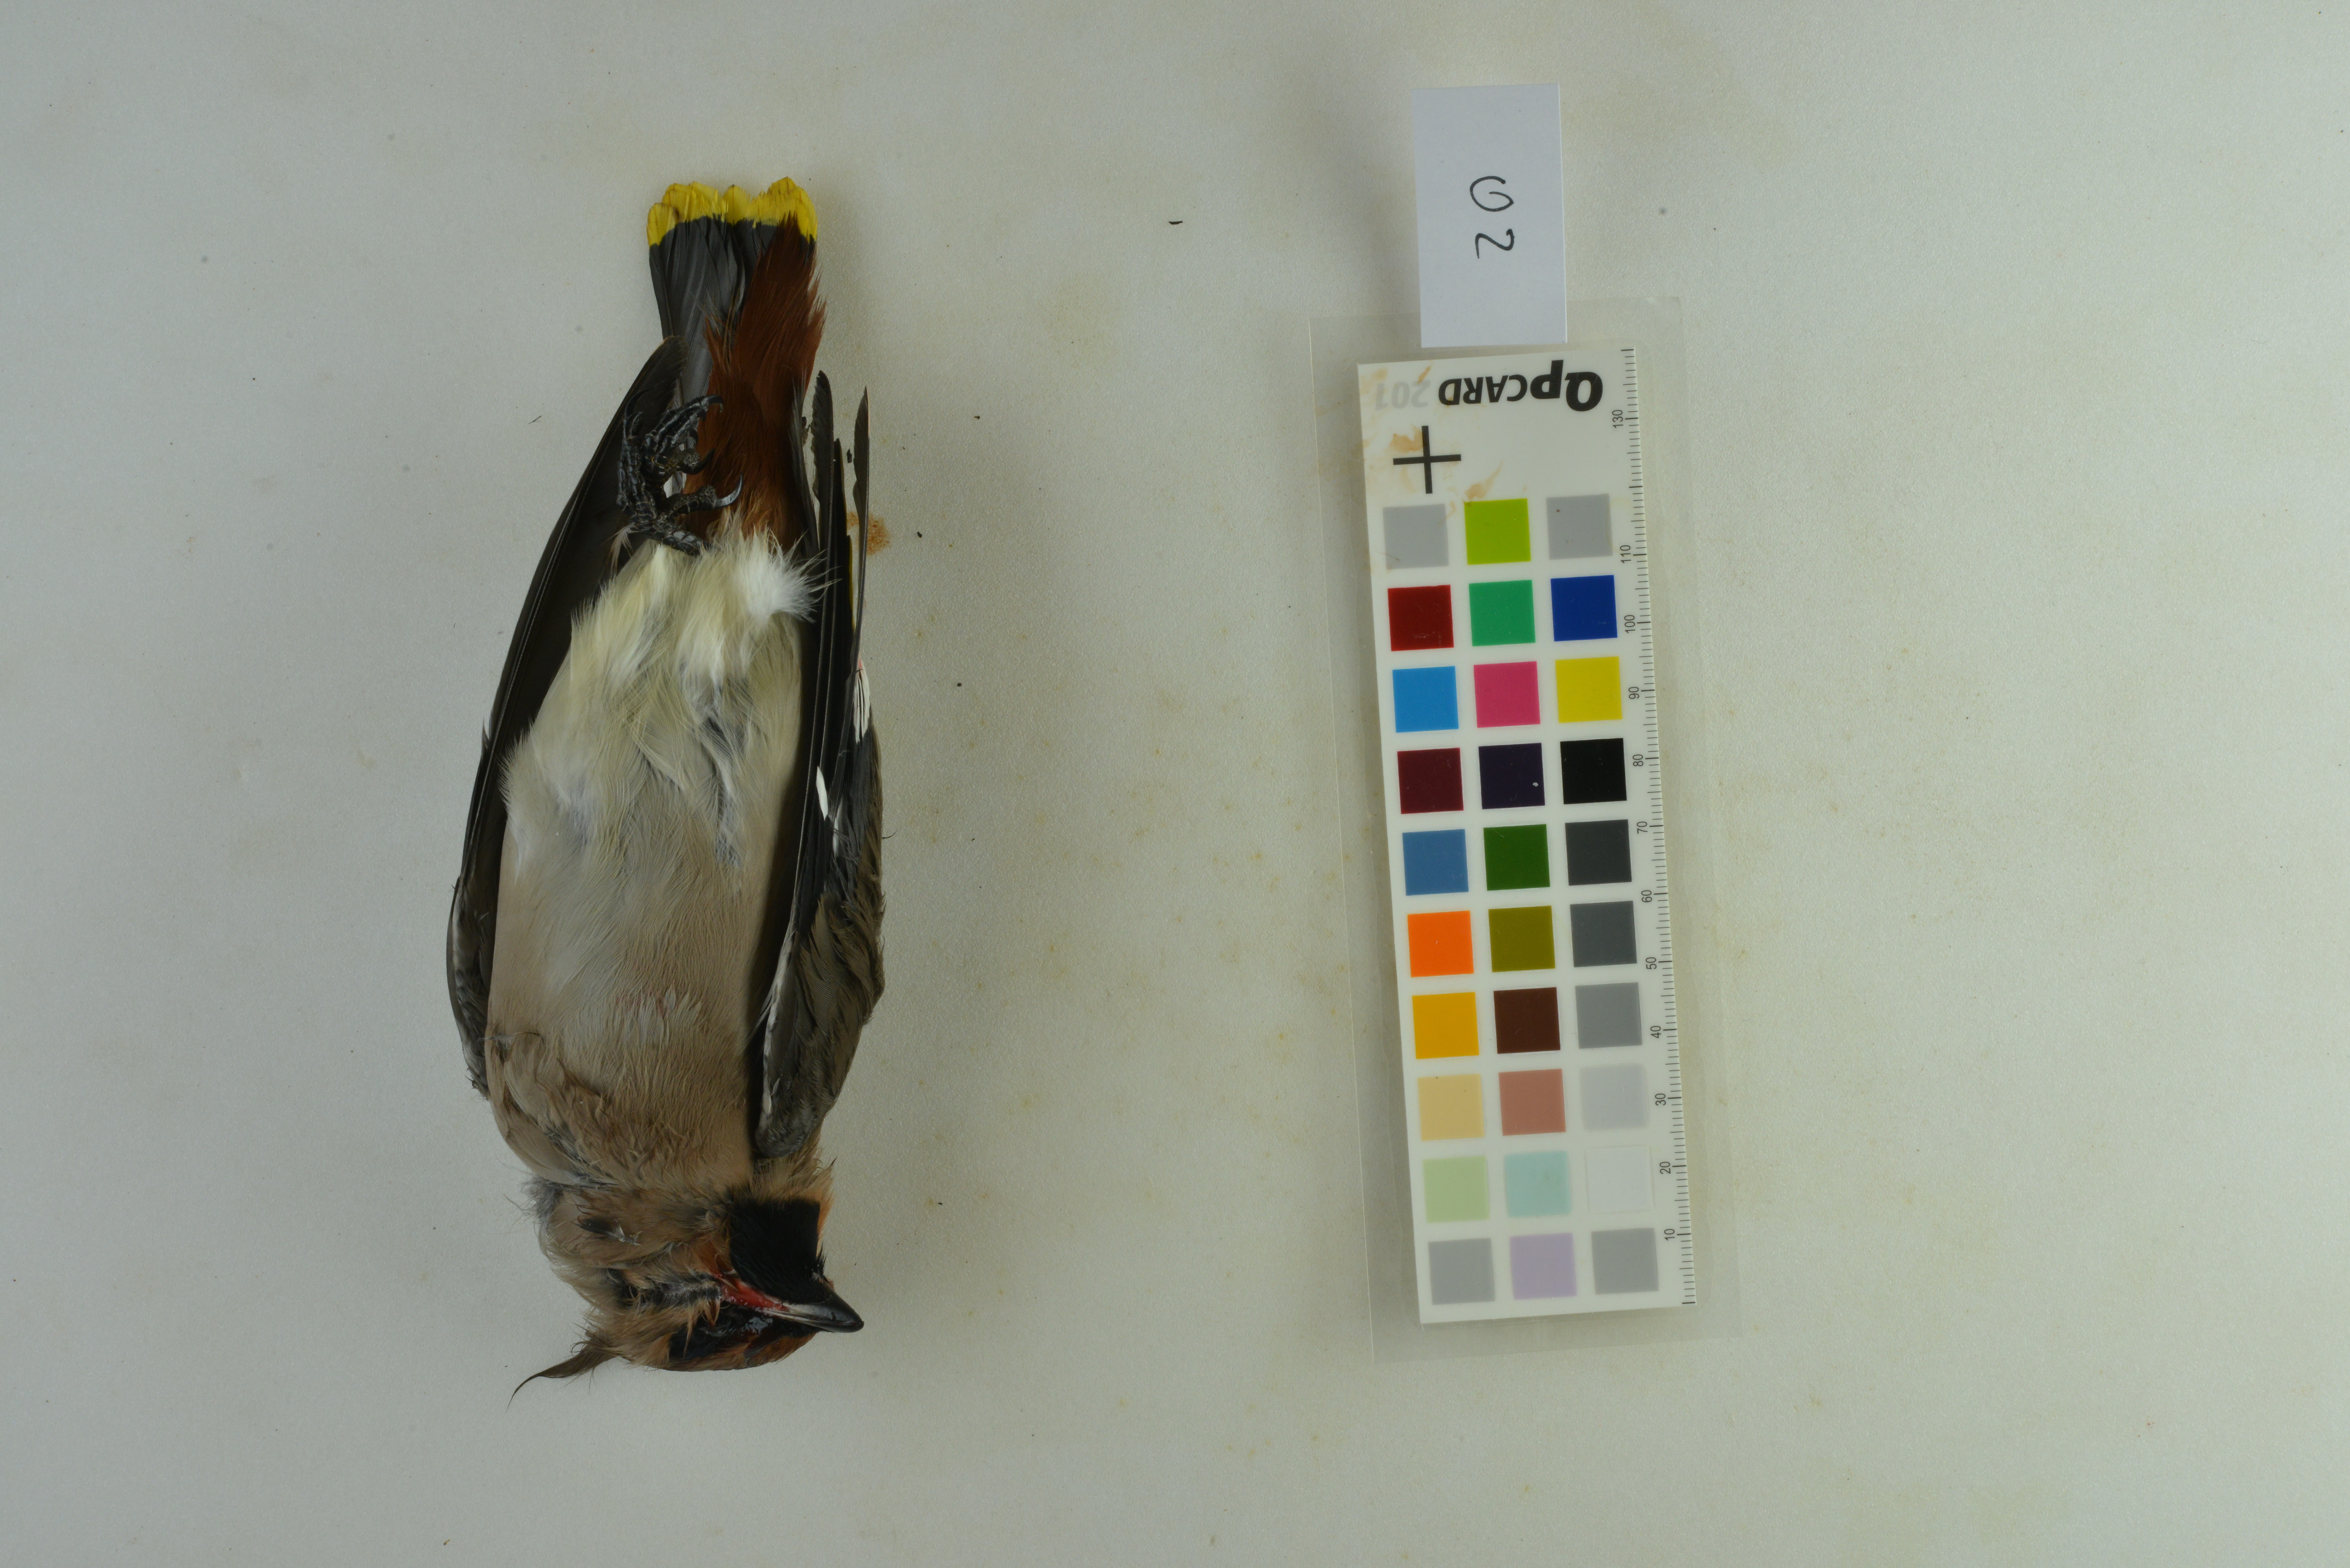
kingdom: Animalia
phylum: Chordata
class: Aves
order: Passeriformes
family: Bombycillidae
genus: Bombycilla
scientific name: Bombycilla garrulus
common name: Bohemian waxwing
